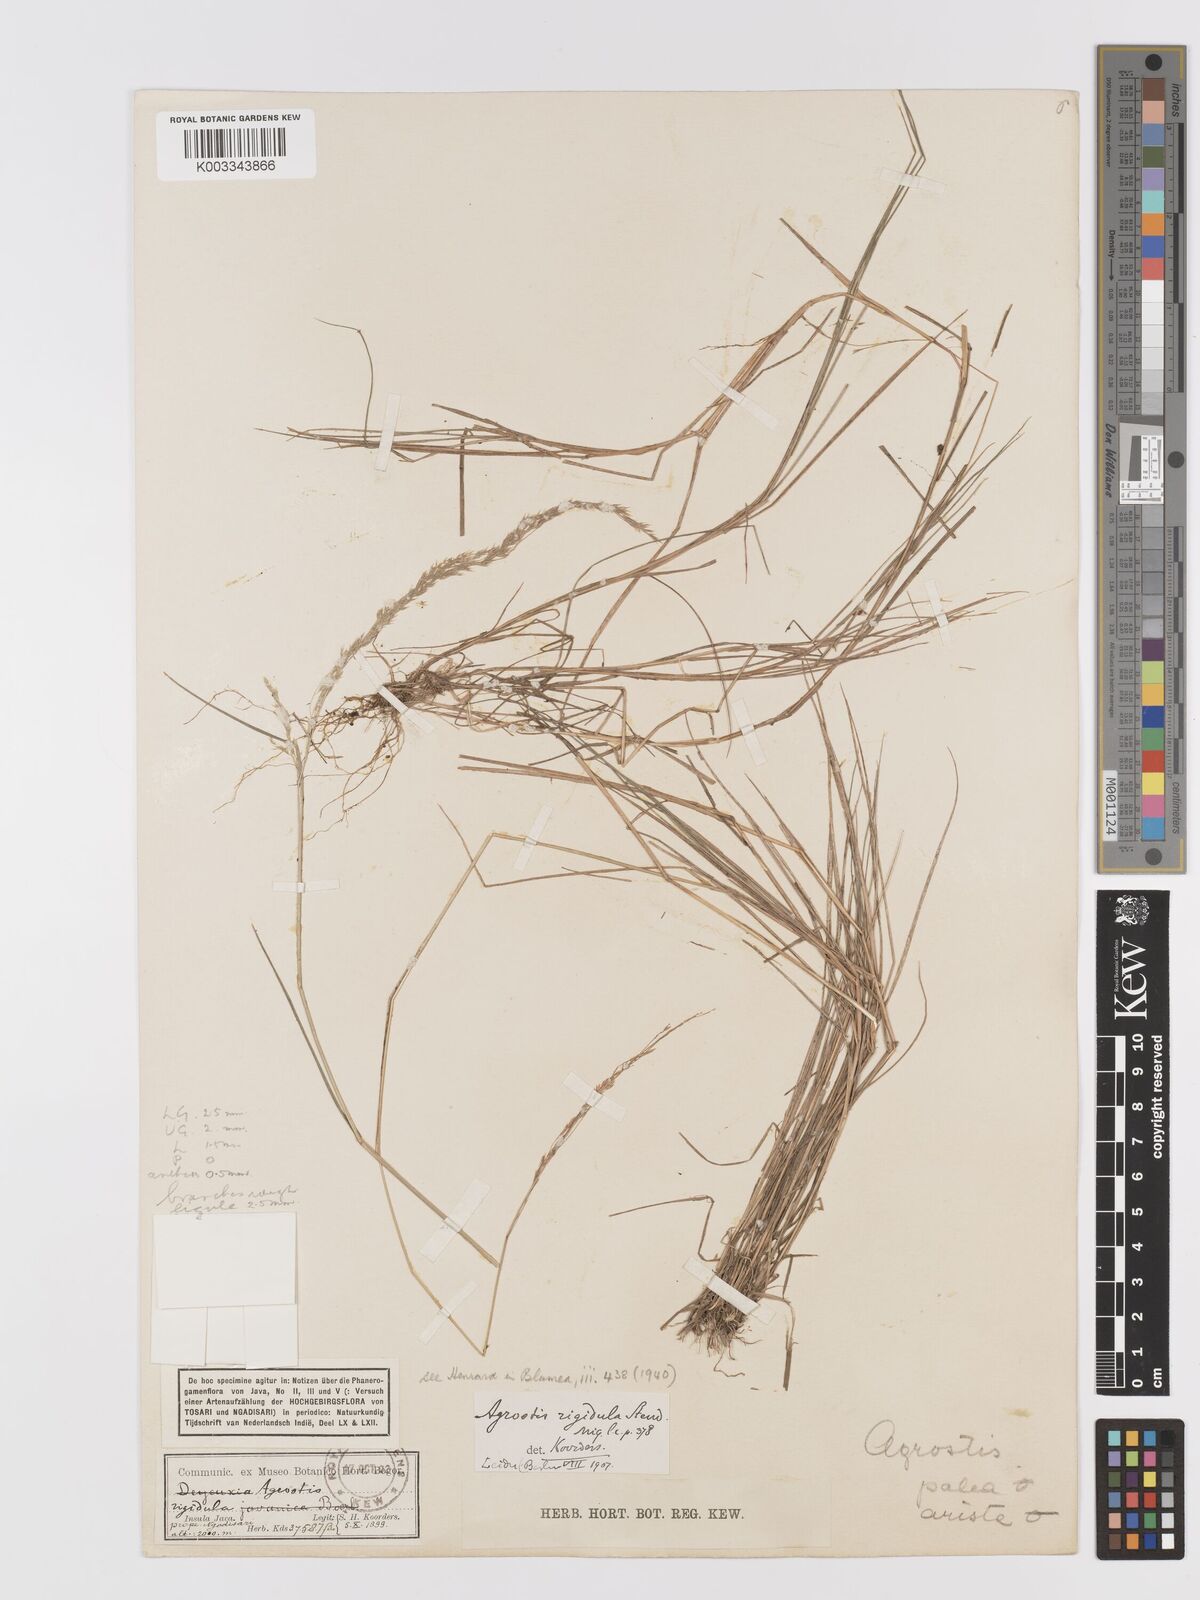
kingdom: Plantae
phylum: Tracheophyta
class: Liliopsida
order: Poales
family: Poaceae
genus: Agrostis
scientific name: Agrostis infirma
